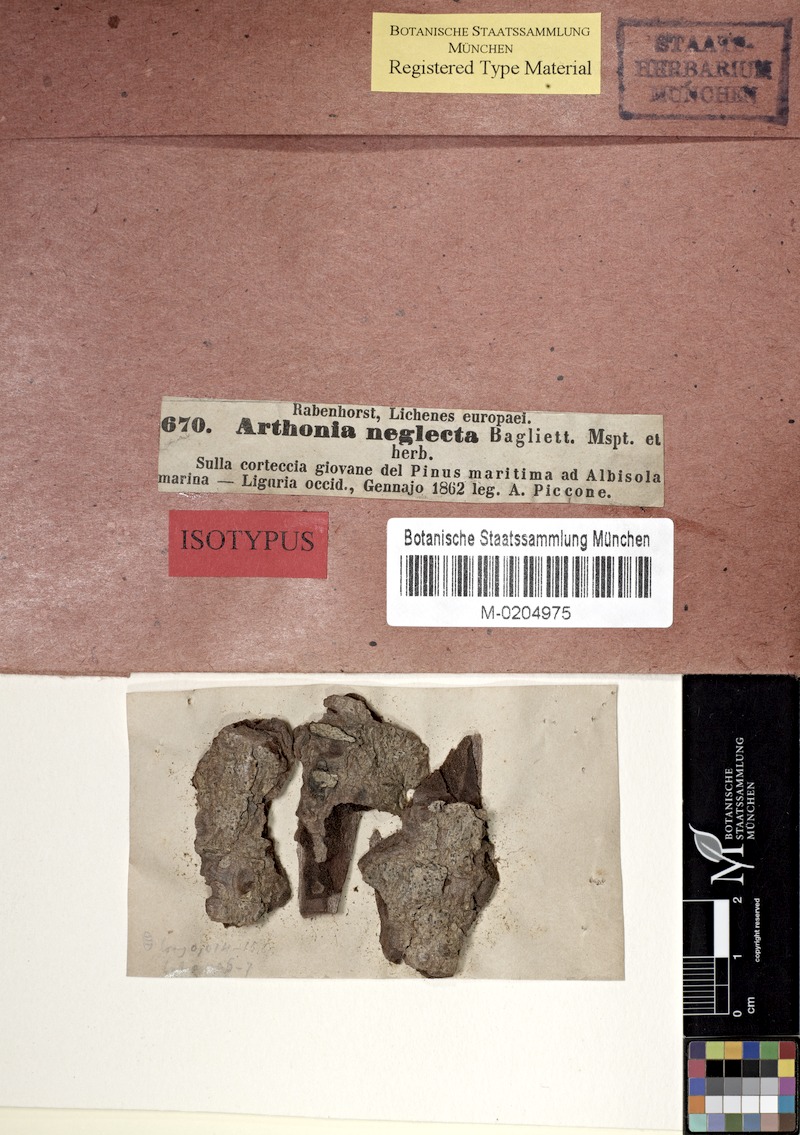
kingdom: Fungi
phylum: Ascomycota
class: Arthoniomycetes
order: Arthoniales
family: Arthoniaceae
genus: Naevia
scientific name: Naevia pinastri
